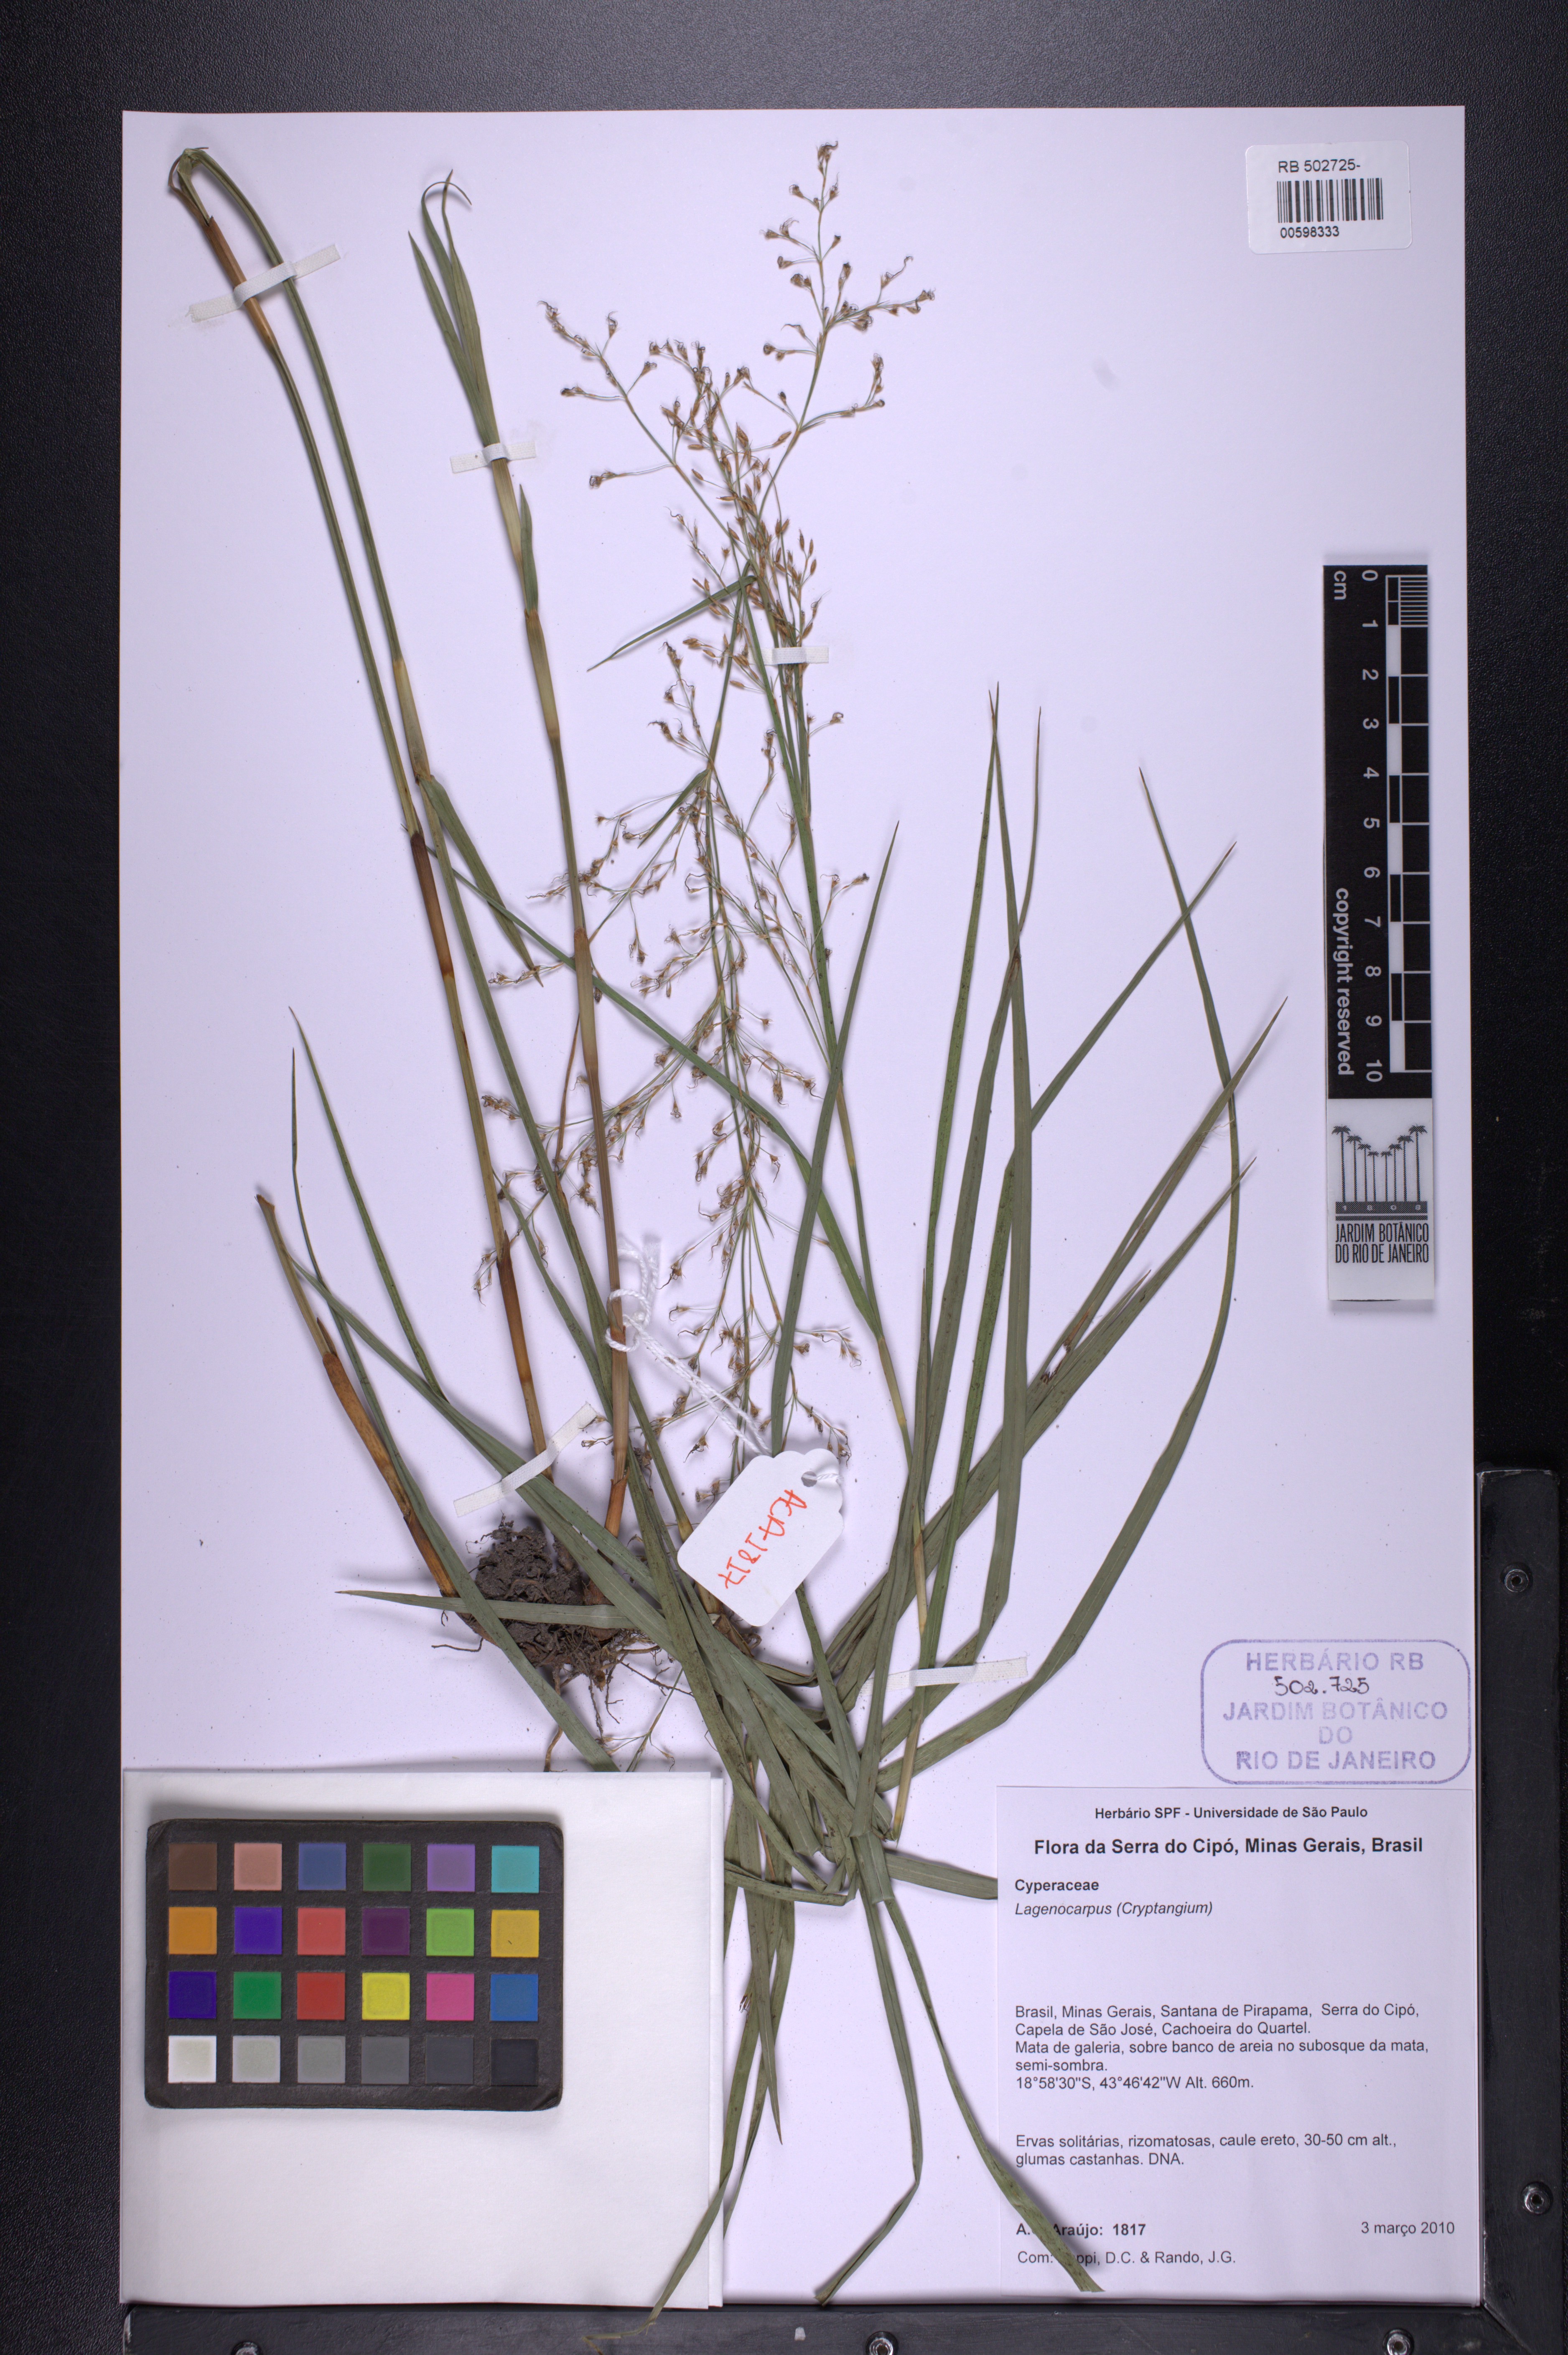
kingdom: Plantae
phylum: Tracheophyta
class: Liliopsida
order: Poales
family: Cyperaceae
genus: Lagenocarpus
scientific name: Lagenocarpus
